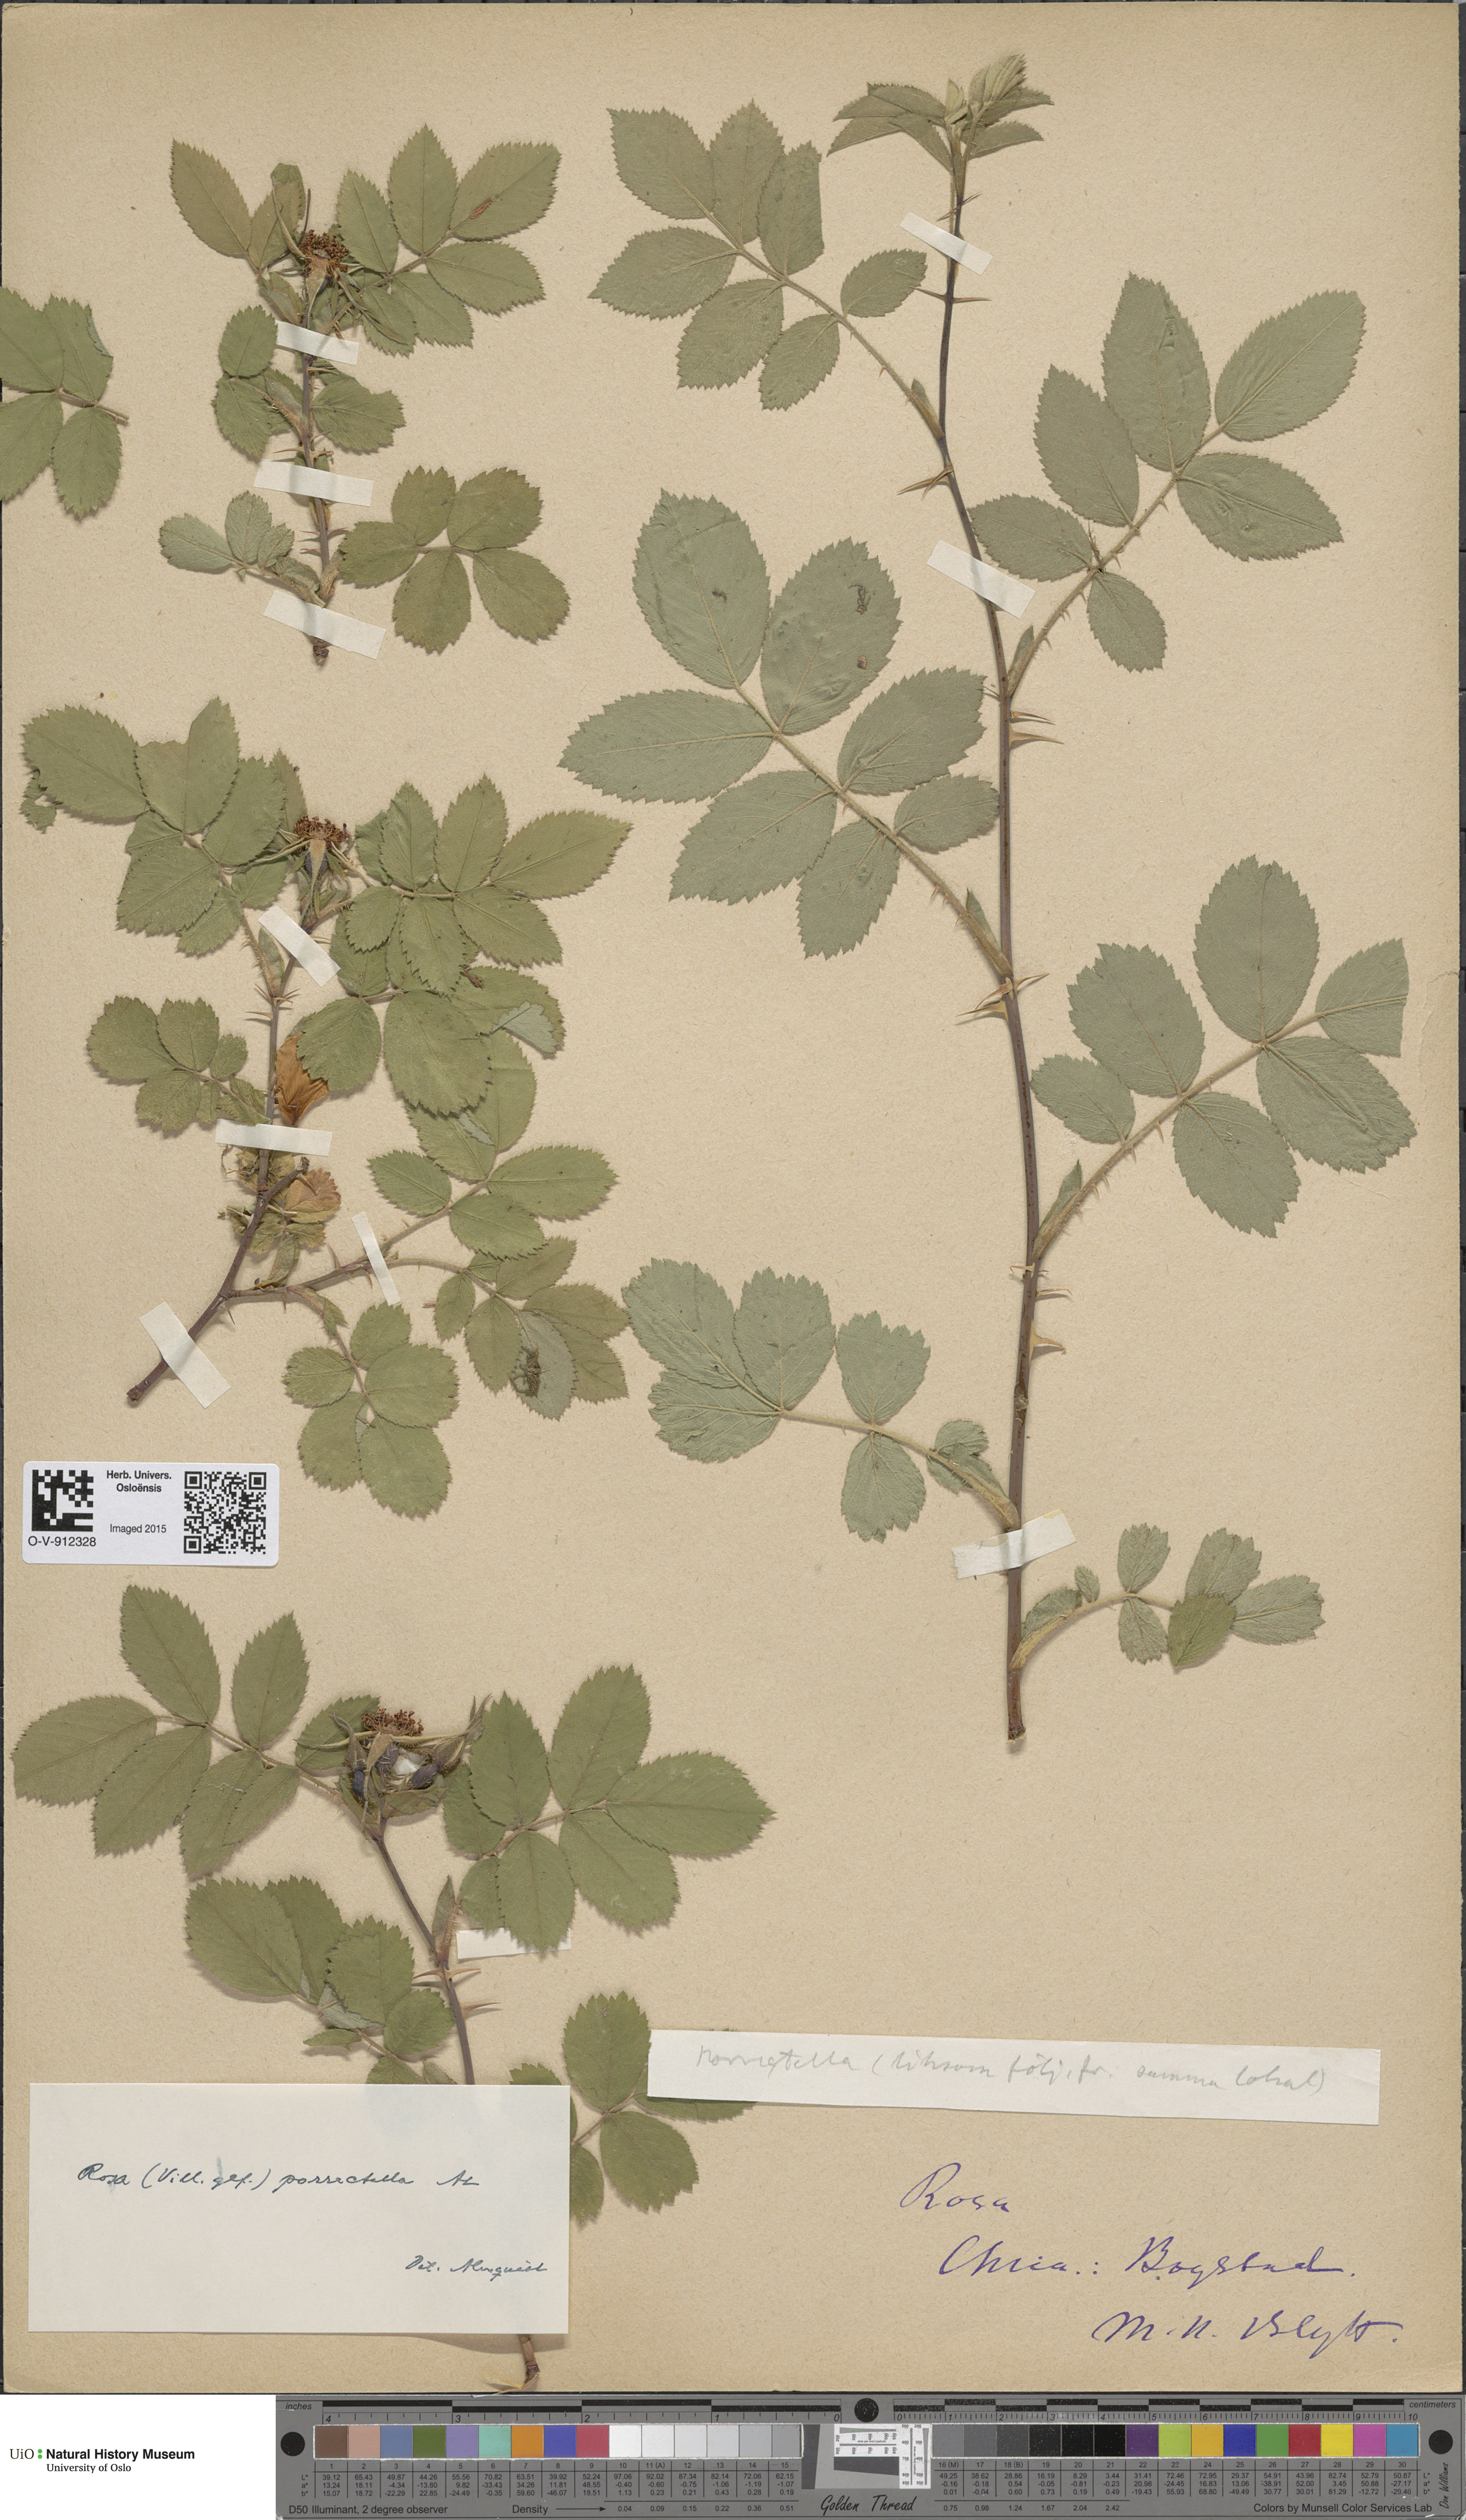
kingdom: Plantae
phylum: Tracheophyta
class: Magnoliopsida
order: Rosales
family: Rosaceae
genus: Rosa
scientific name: Rosa mollis
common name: Rose
